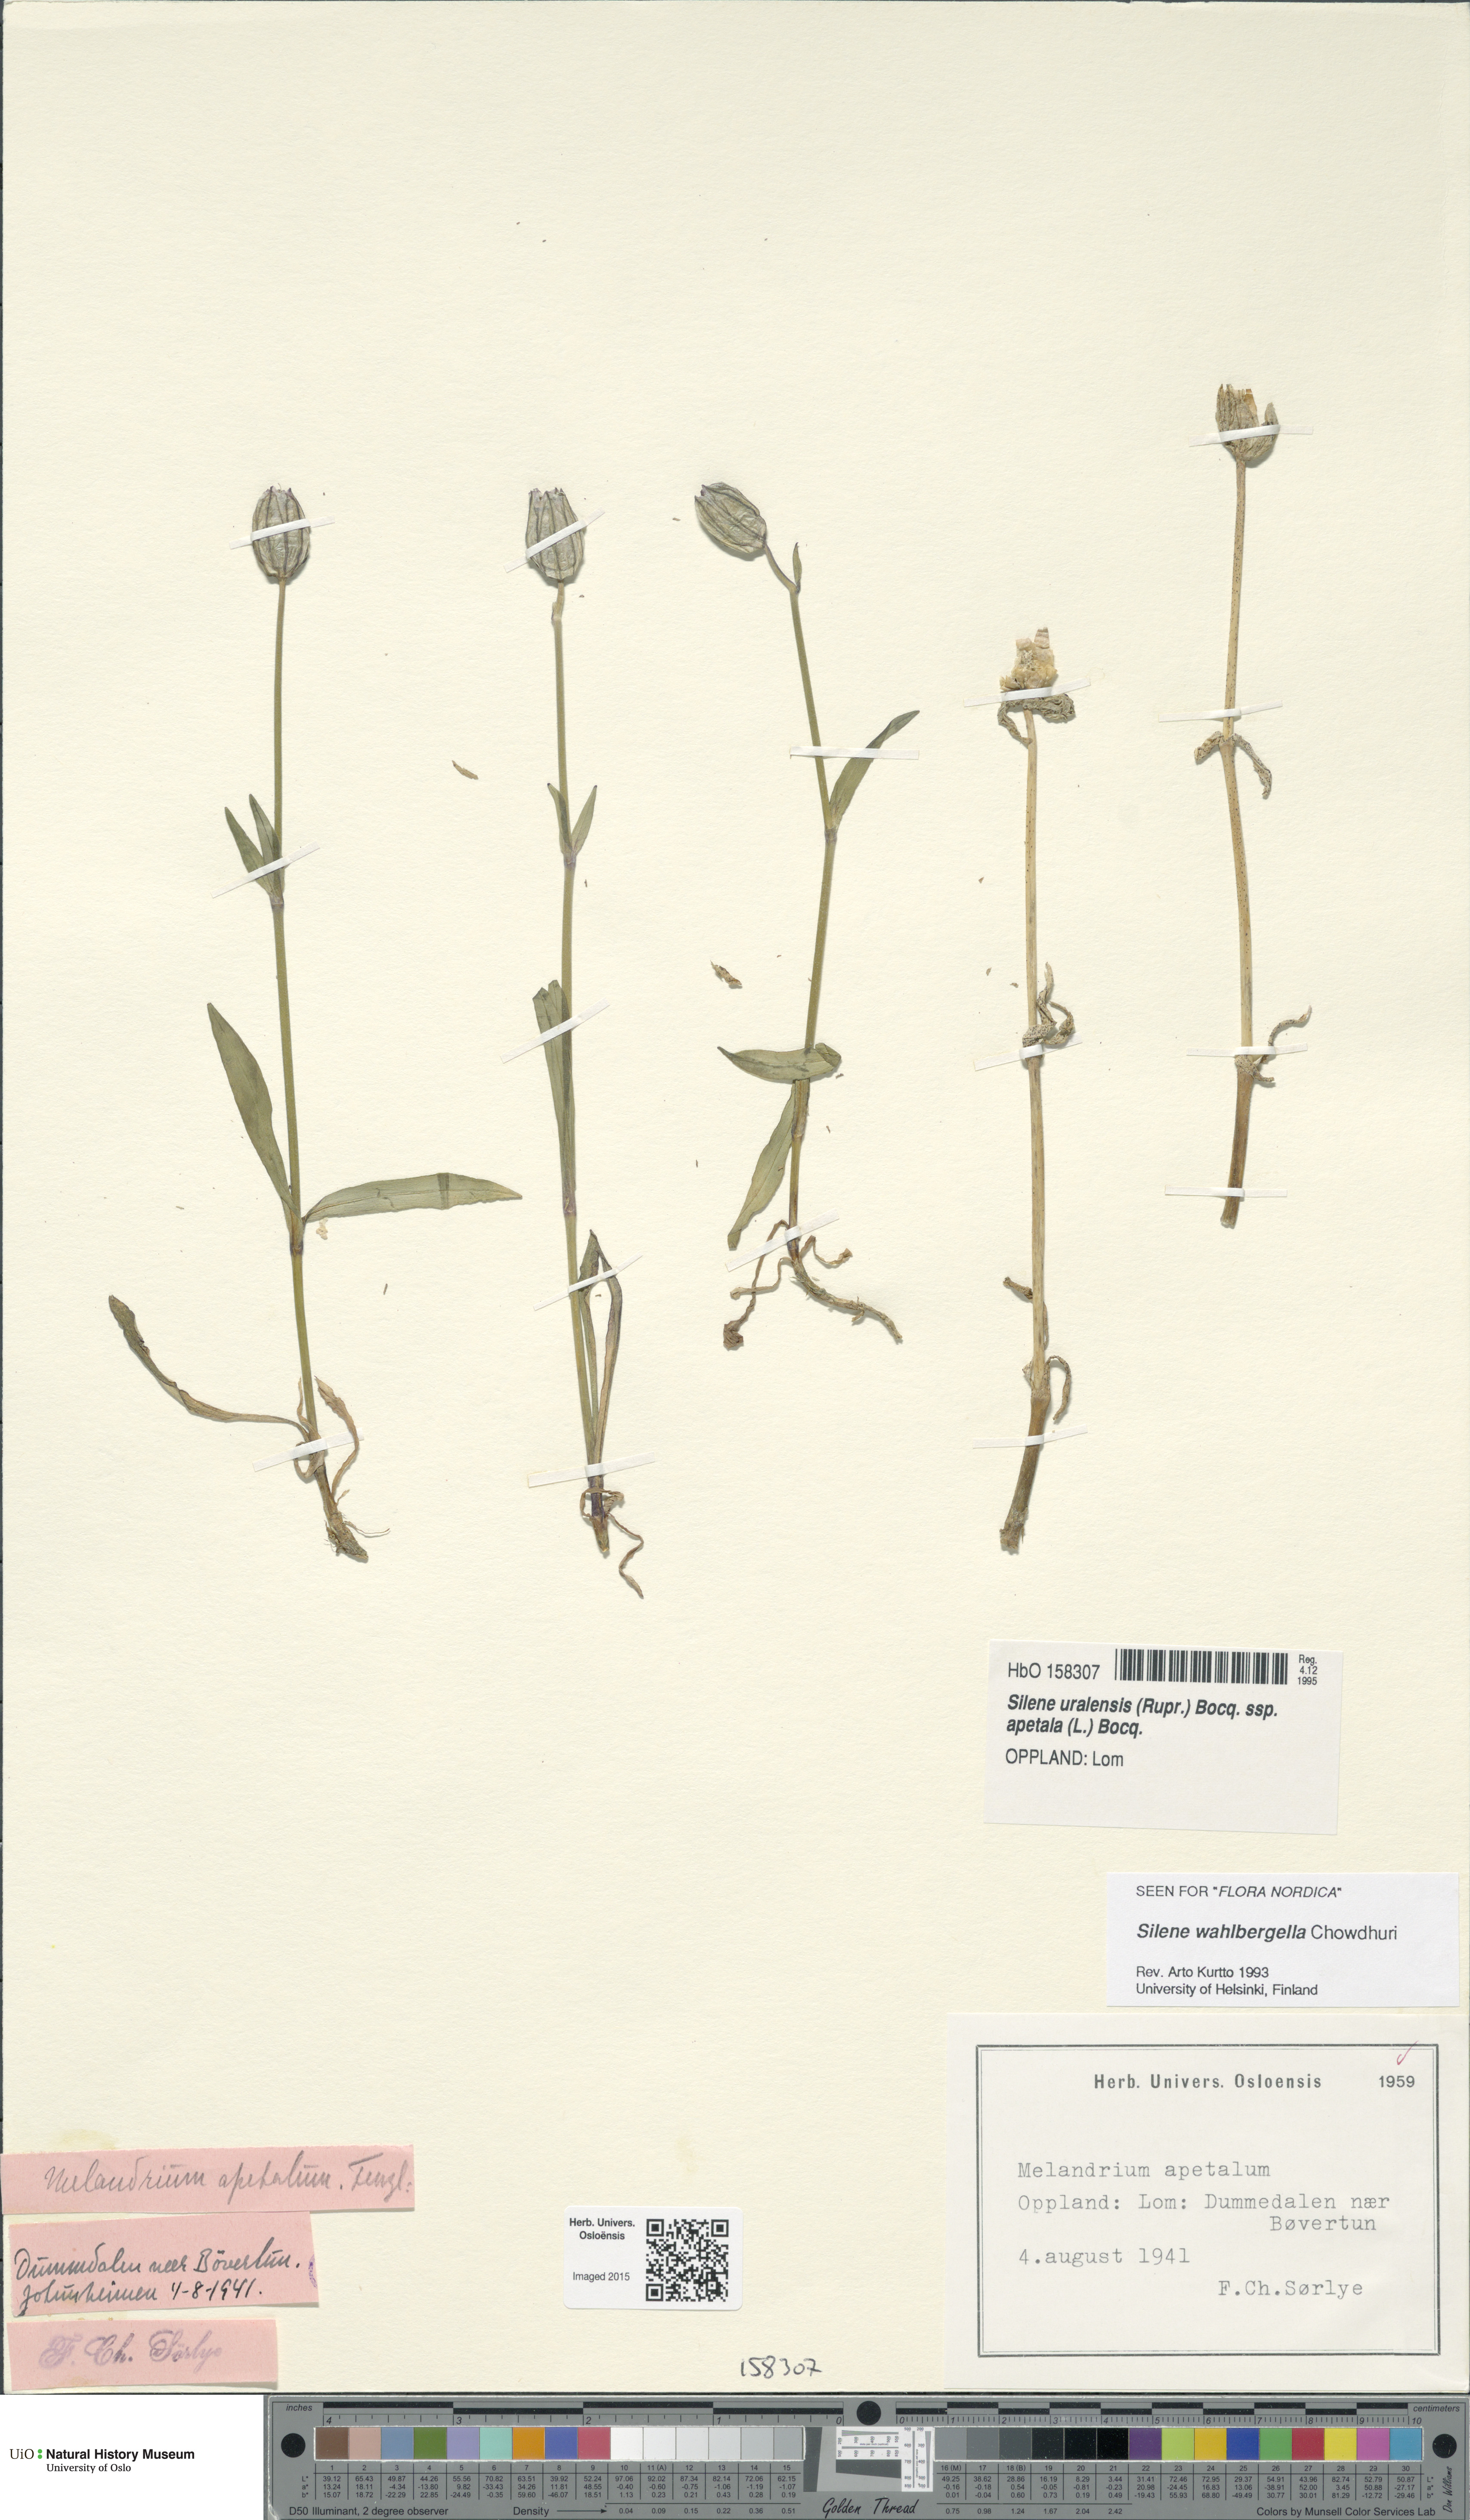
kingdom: Plantae
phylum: Tracheophyta
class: Magnoliopsida
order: Caryophyllales
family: Caryophyllaceae
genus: Silene
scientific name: Silene wahlbergella
